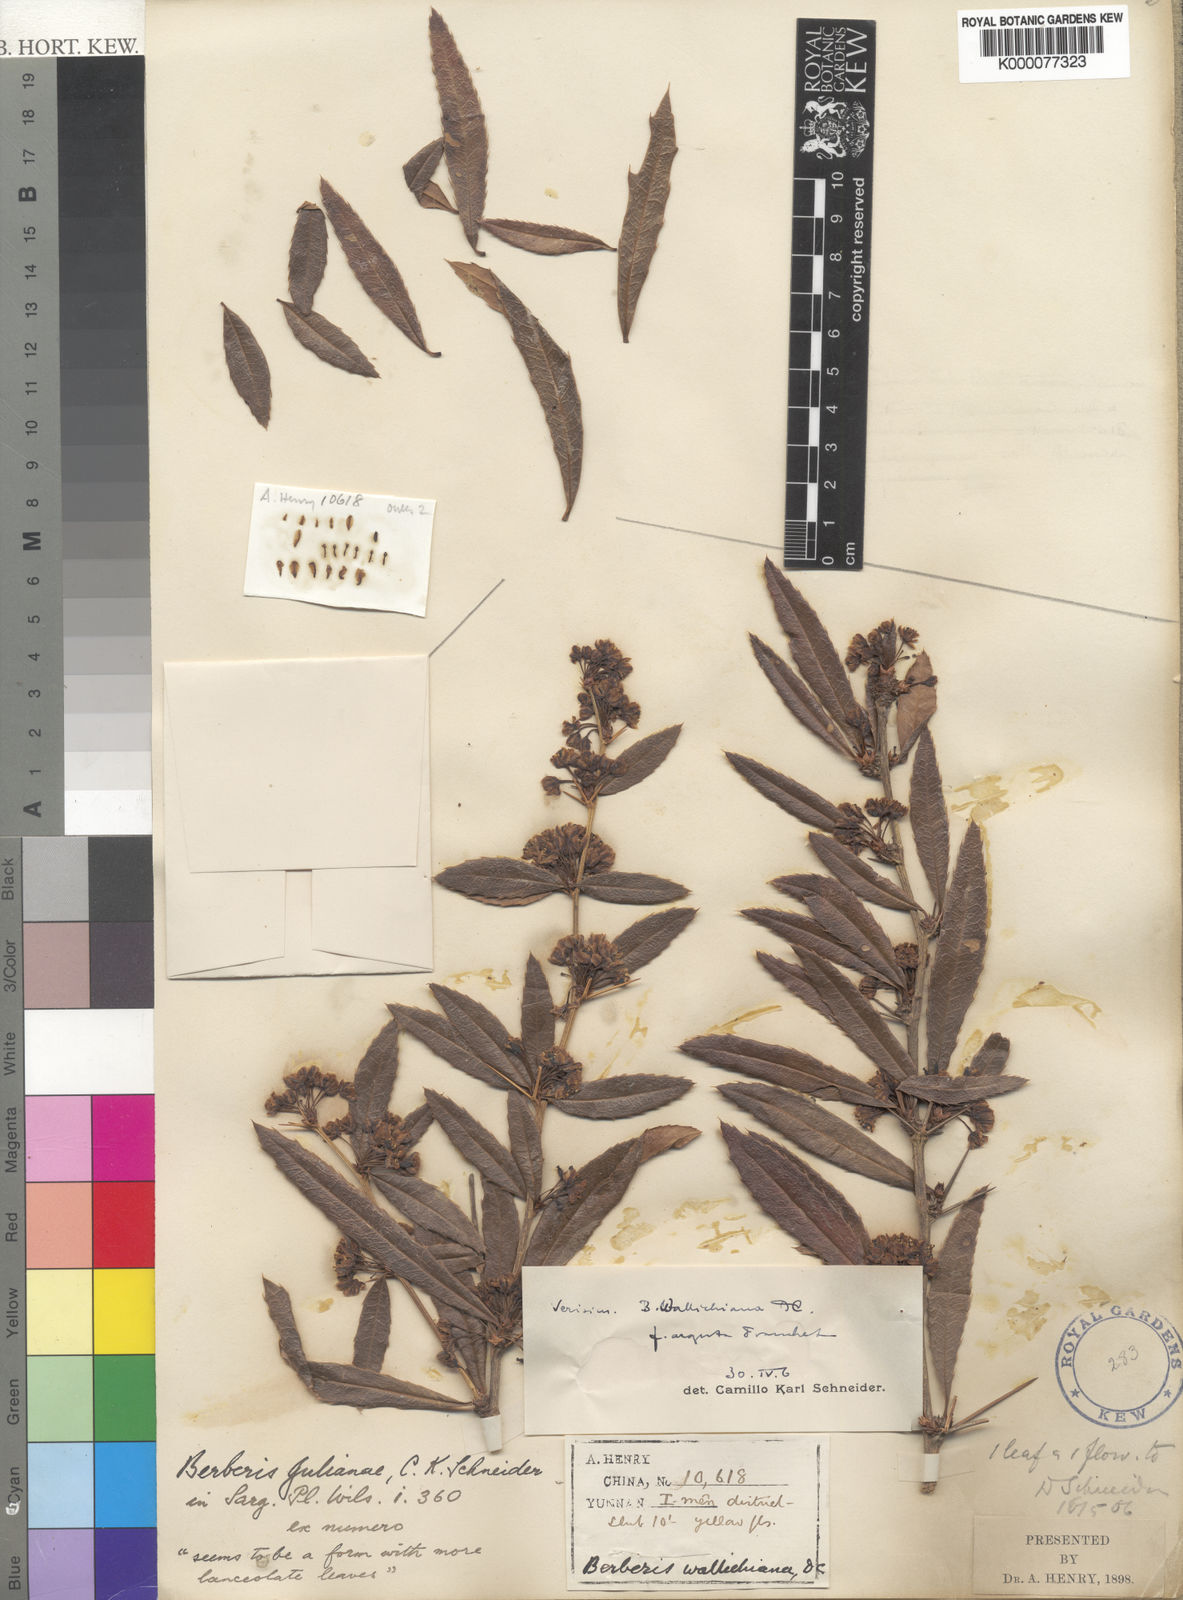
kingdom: Plantae
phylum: Tracheophyta
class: Magnoliopsida
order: Ranunculales
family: Berberidaceae
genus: Berberis
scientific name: Berberis julianae
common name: Wintergreen barberry
